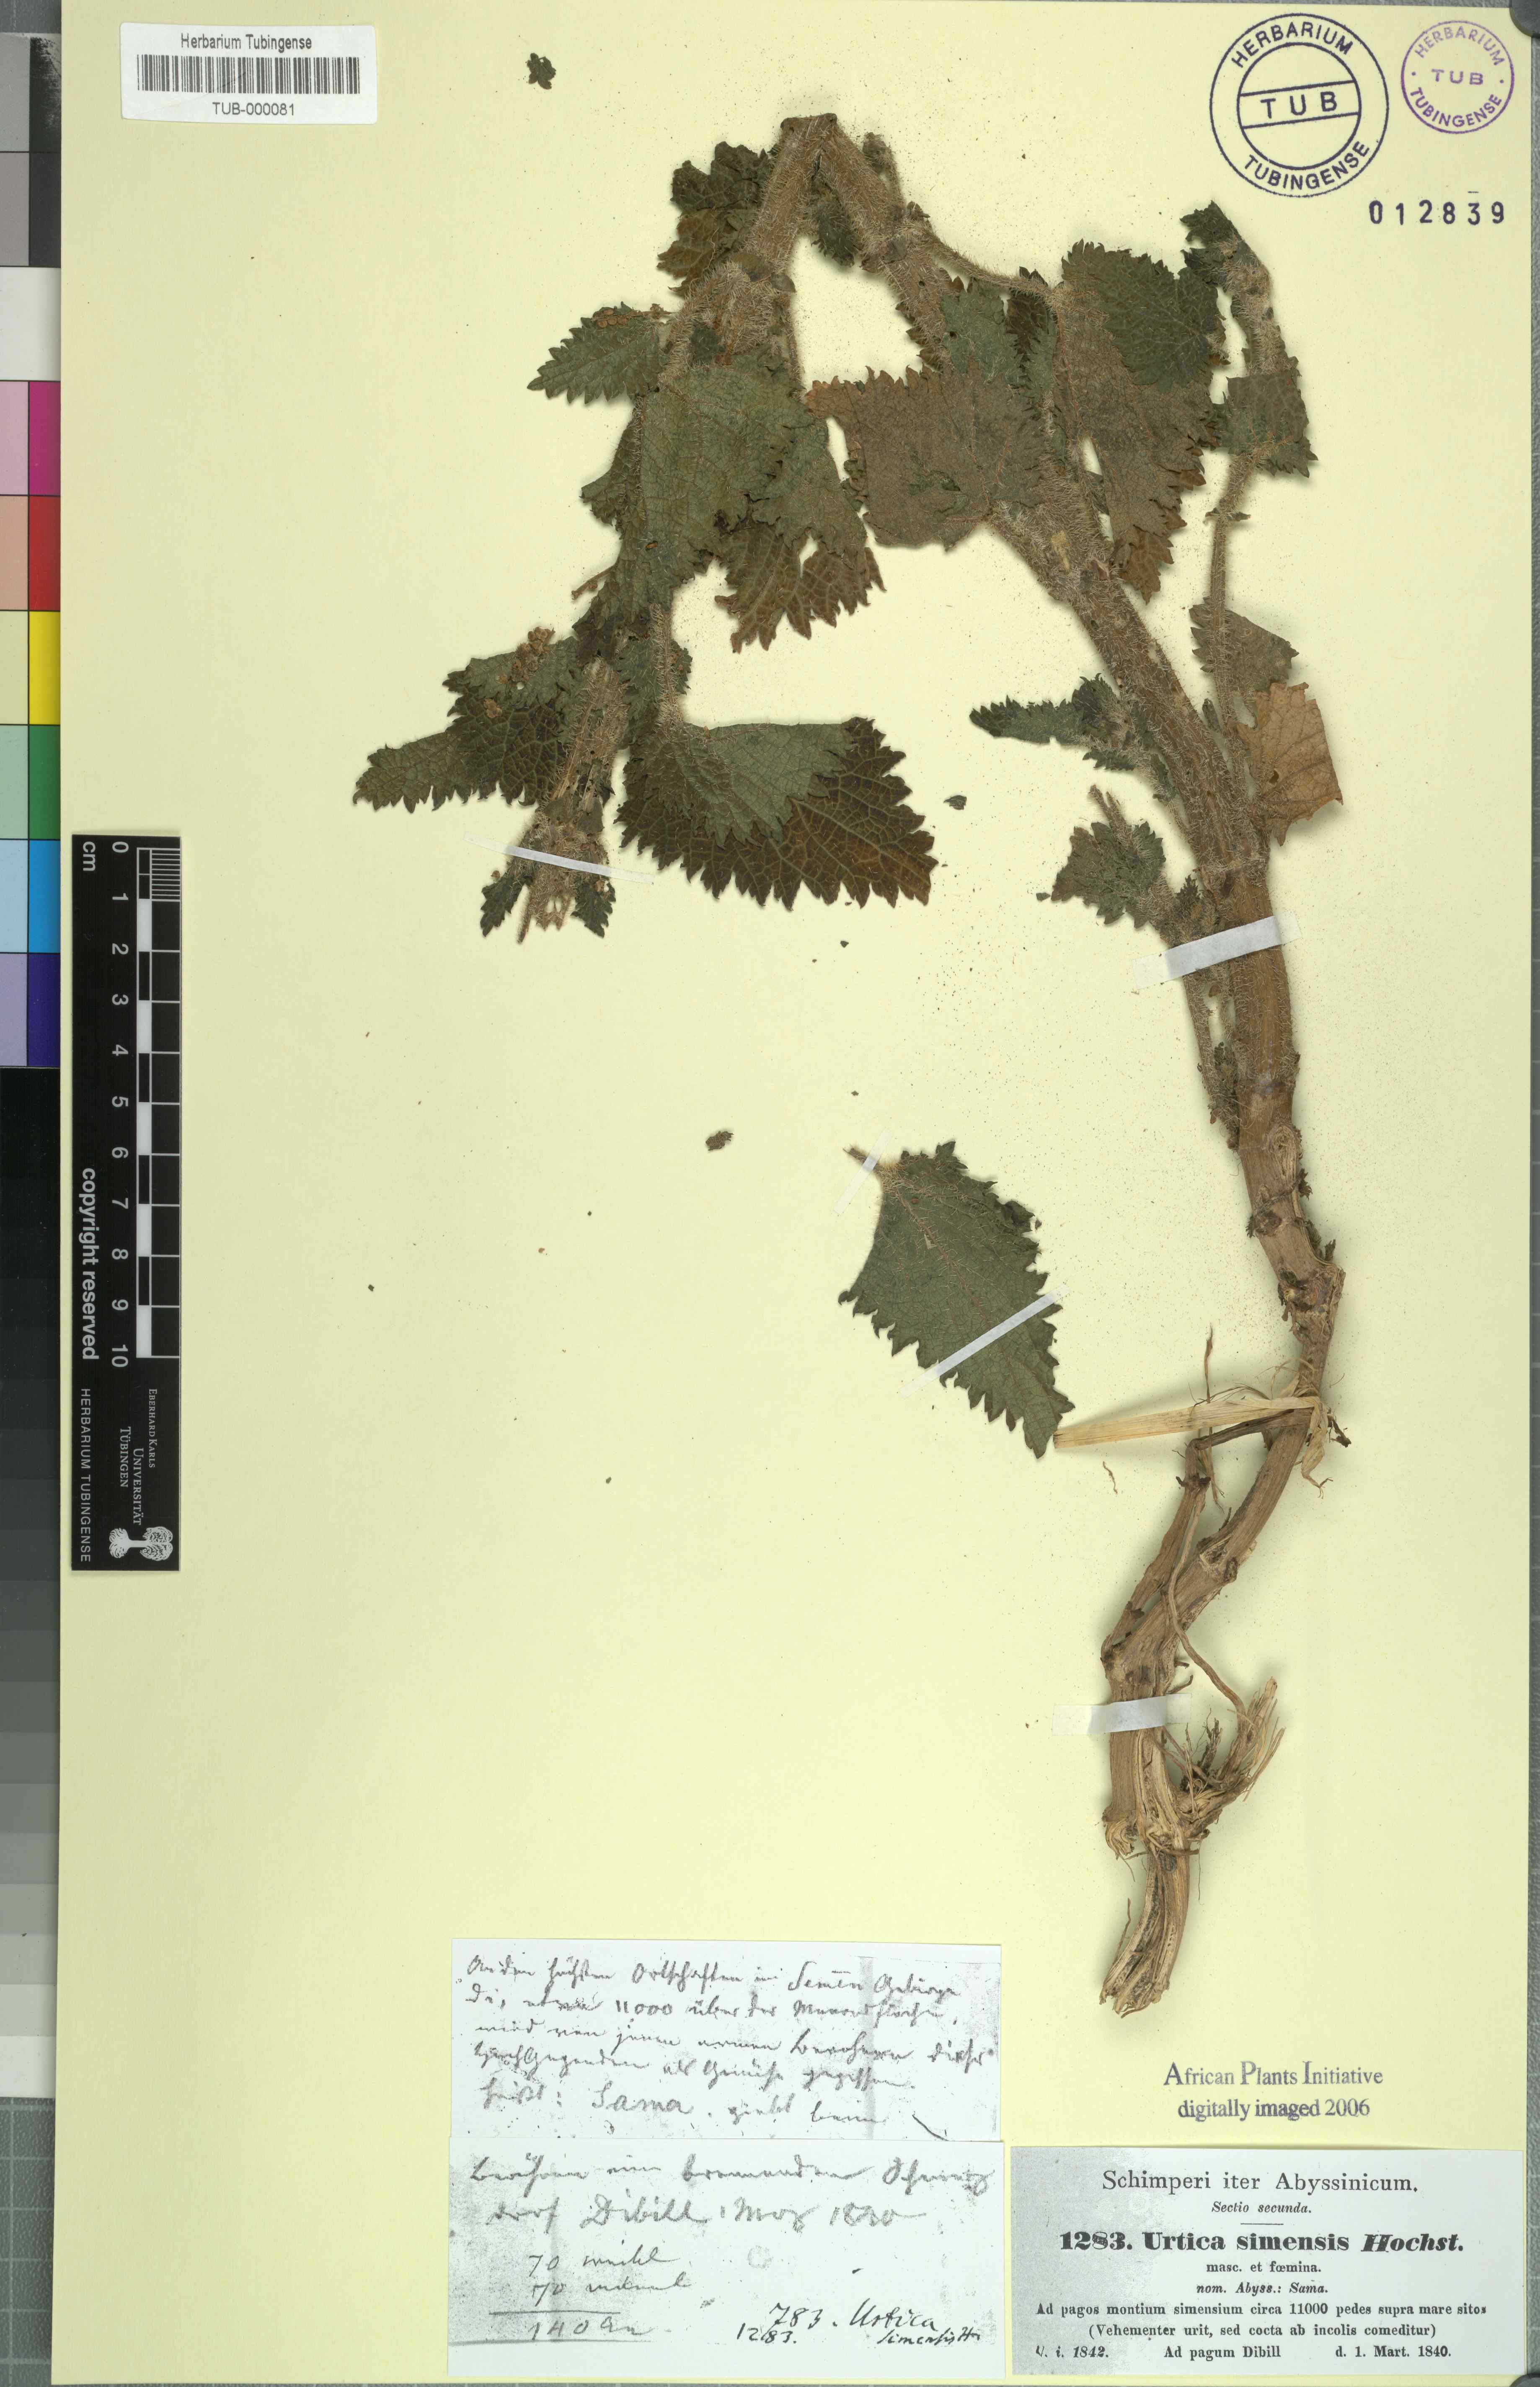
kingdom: Plantae
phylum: Tracheophyta
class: Magnoliopsida
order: Rosales
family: Urticaceae
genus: Urtica
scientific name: Urtica simensis
